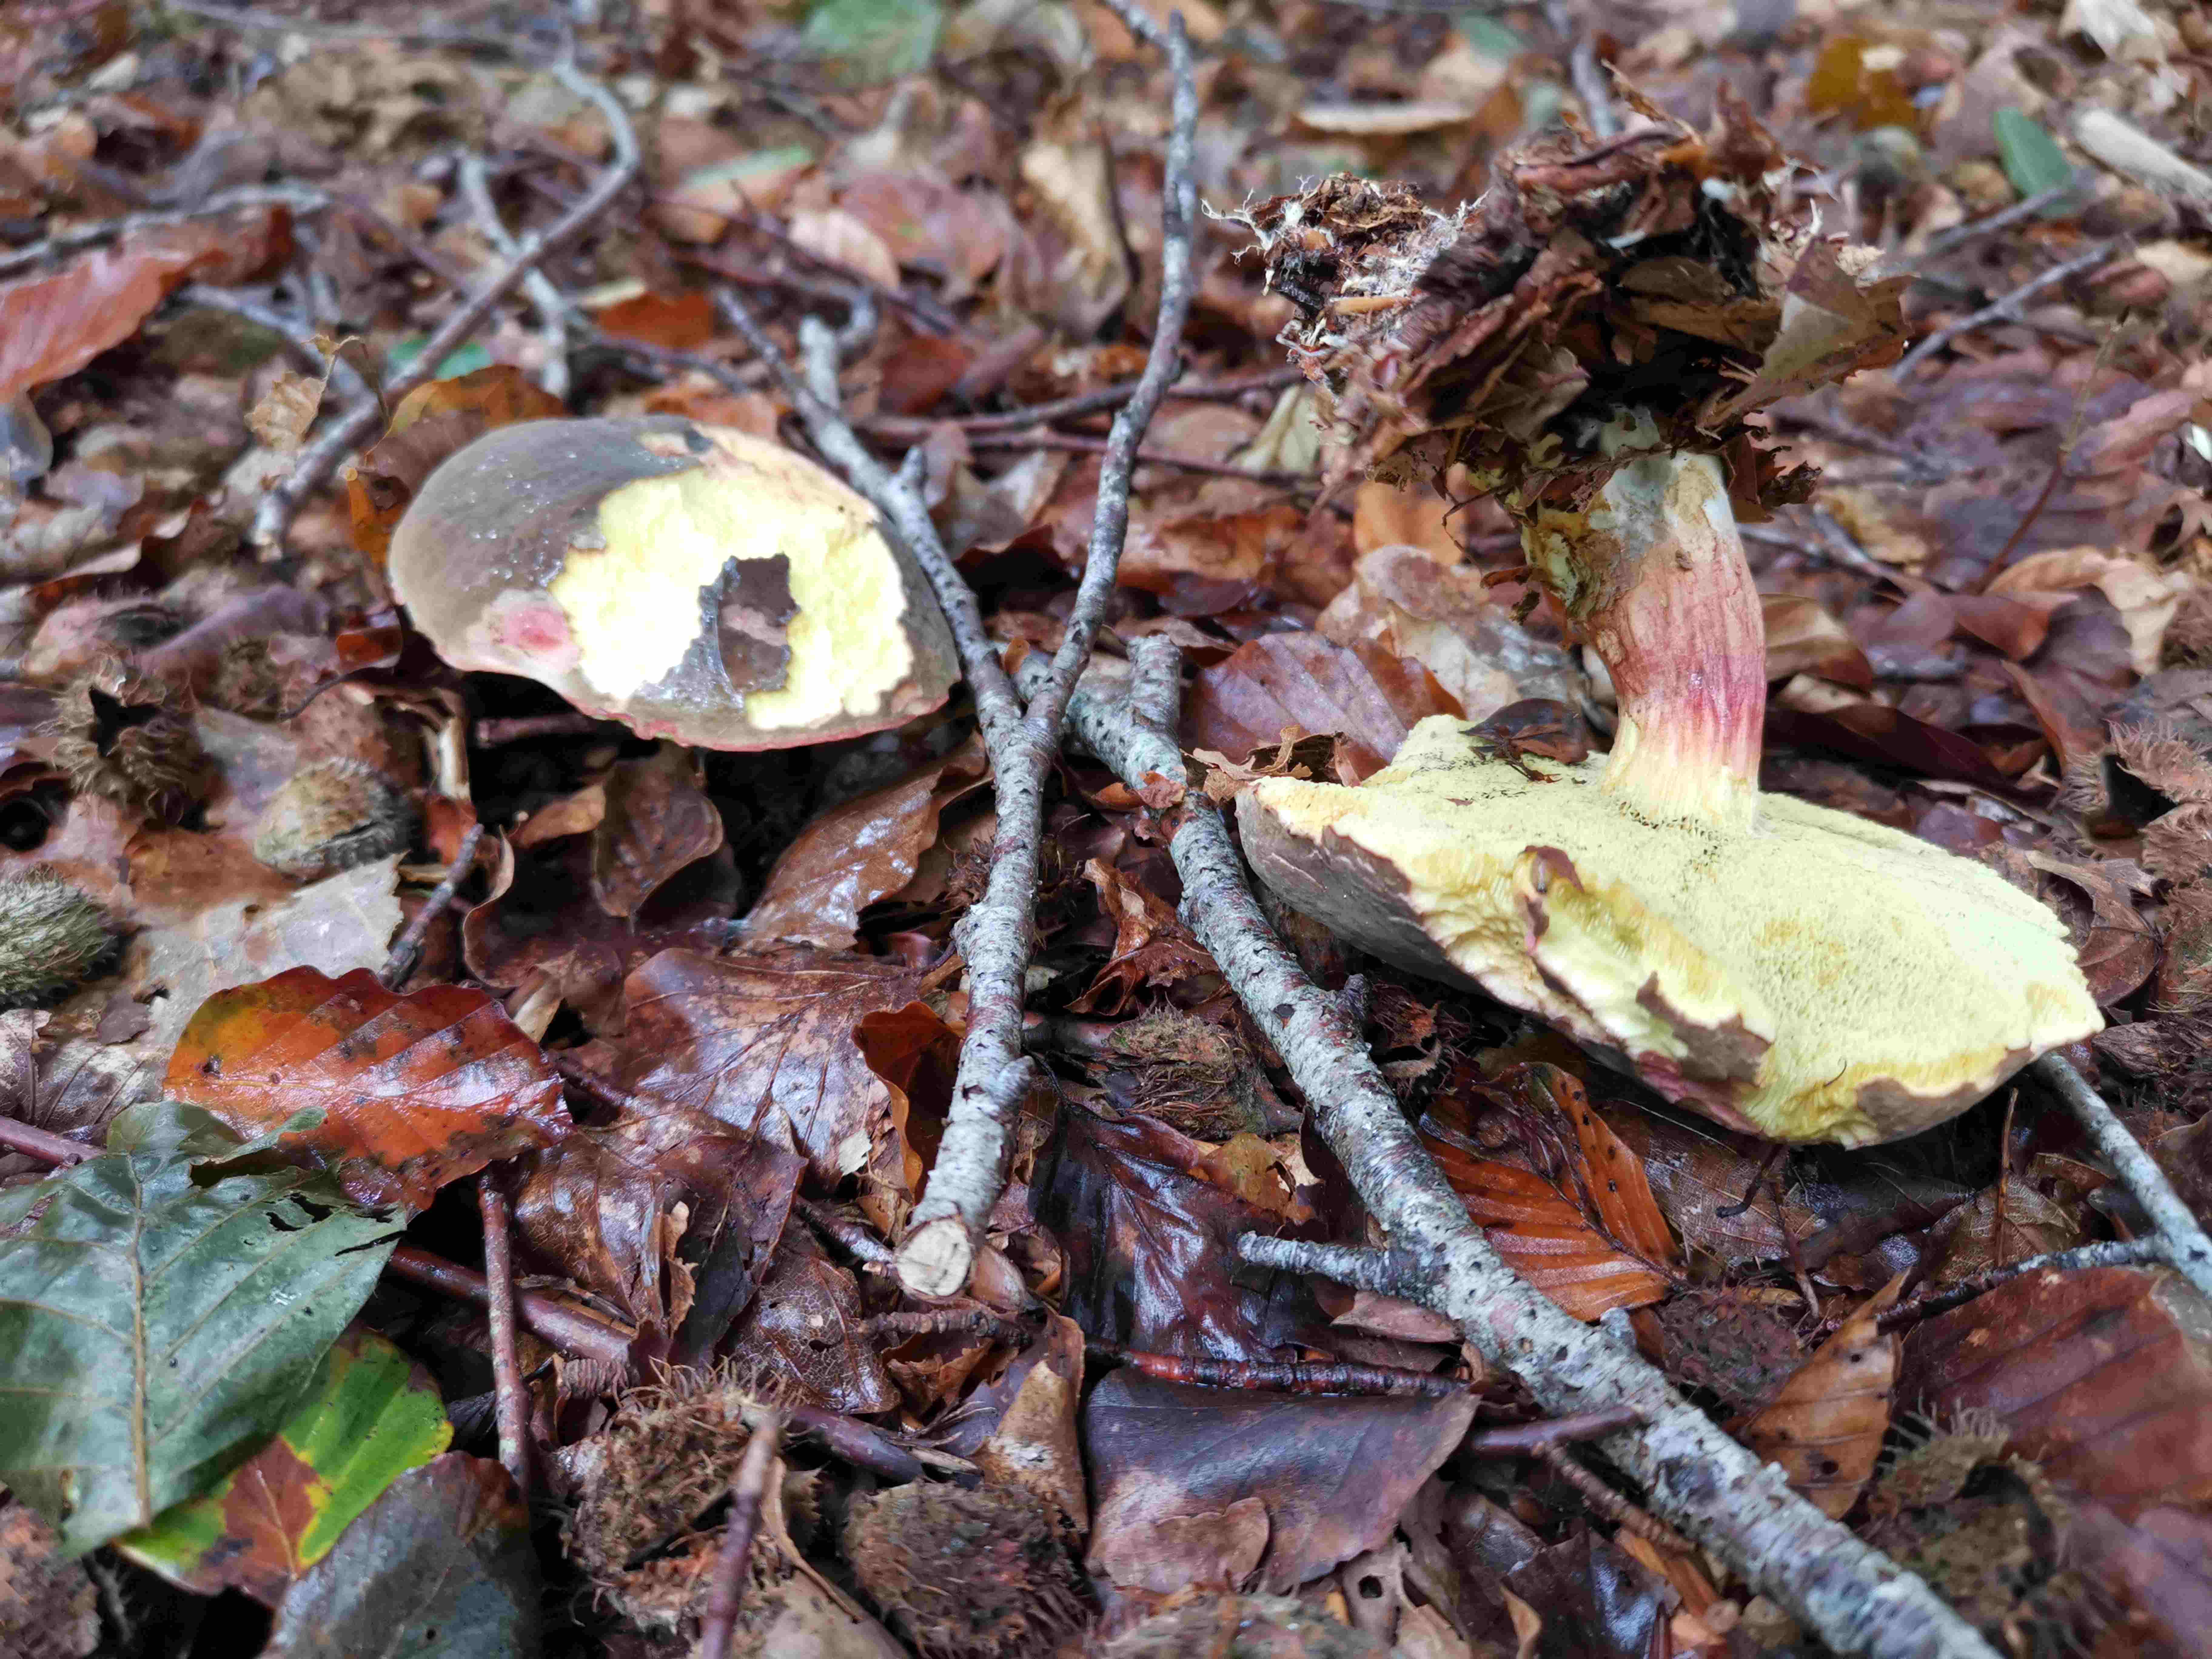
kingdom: Fungi
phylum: Basidiomycota
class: Agaricomycetes
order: Boletales
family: Boletaceae
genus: Xerocomellus
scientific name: Xerocomellus
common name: dværgrørhat
